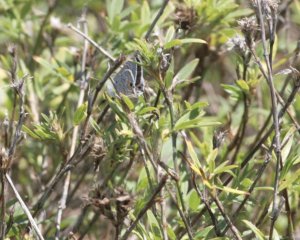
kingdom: Animalia
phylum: Arthropoda
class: Insecta
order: Lepidoptera
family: Lycaenidae
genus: Callicista
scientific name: Callicista columella
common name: Mallow Scrub-Hairstreak
